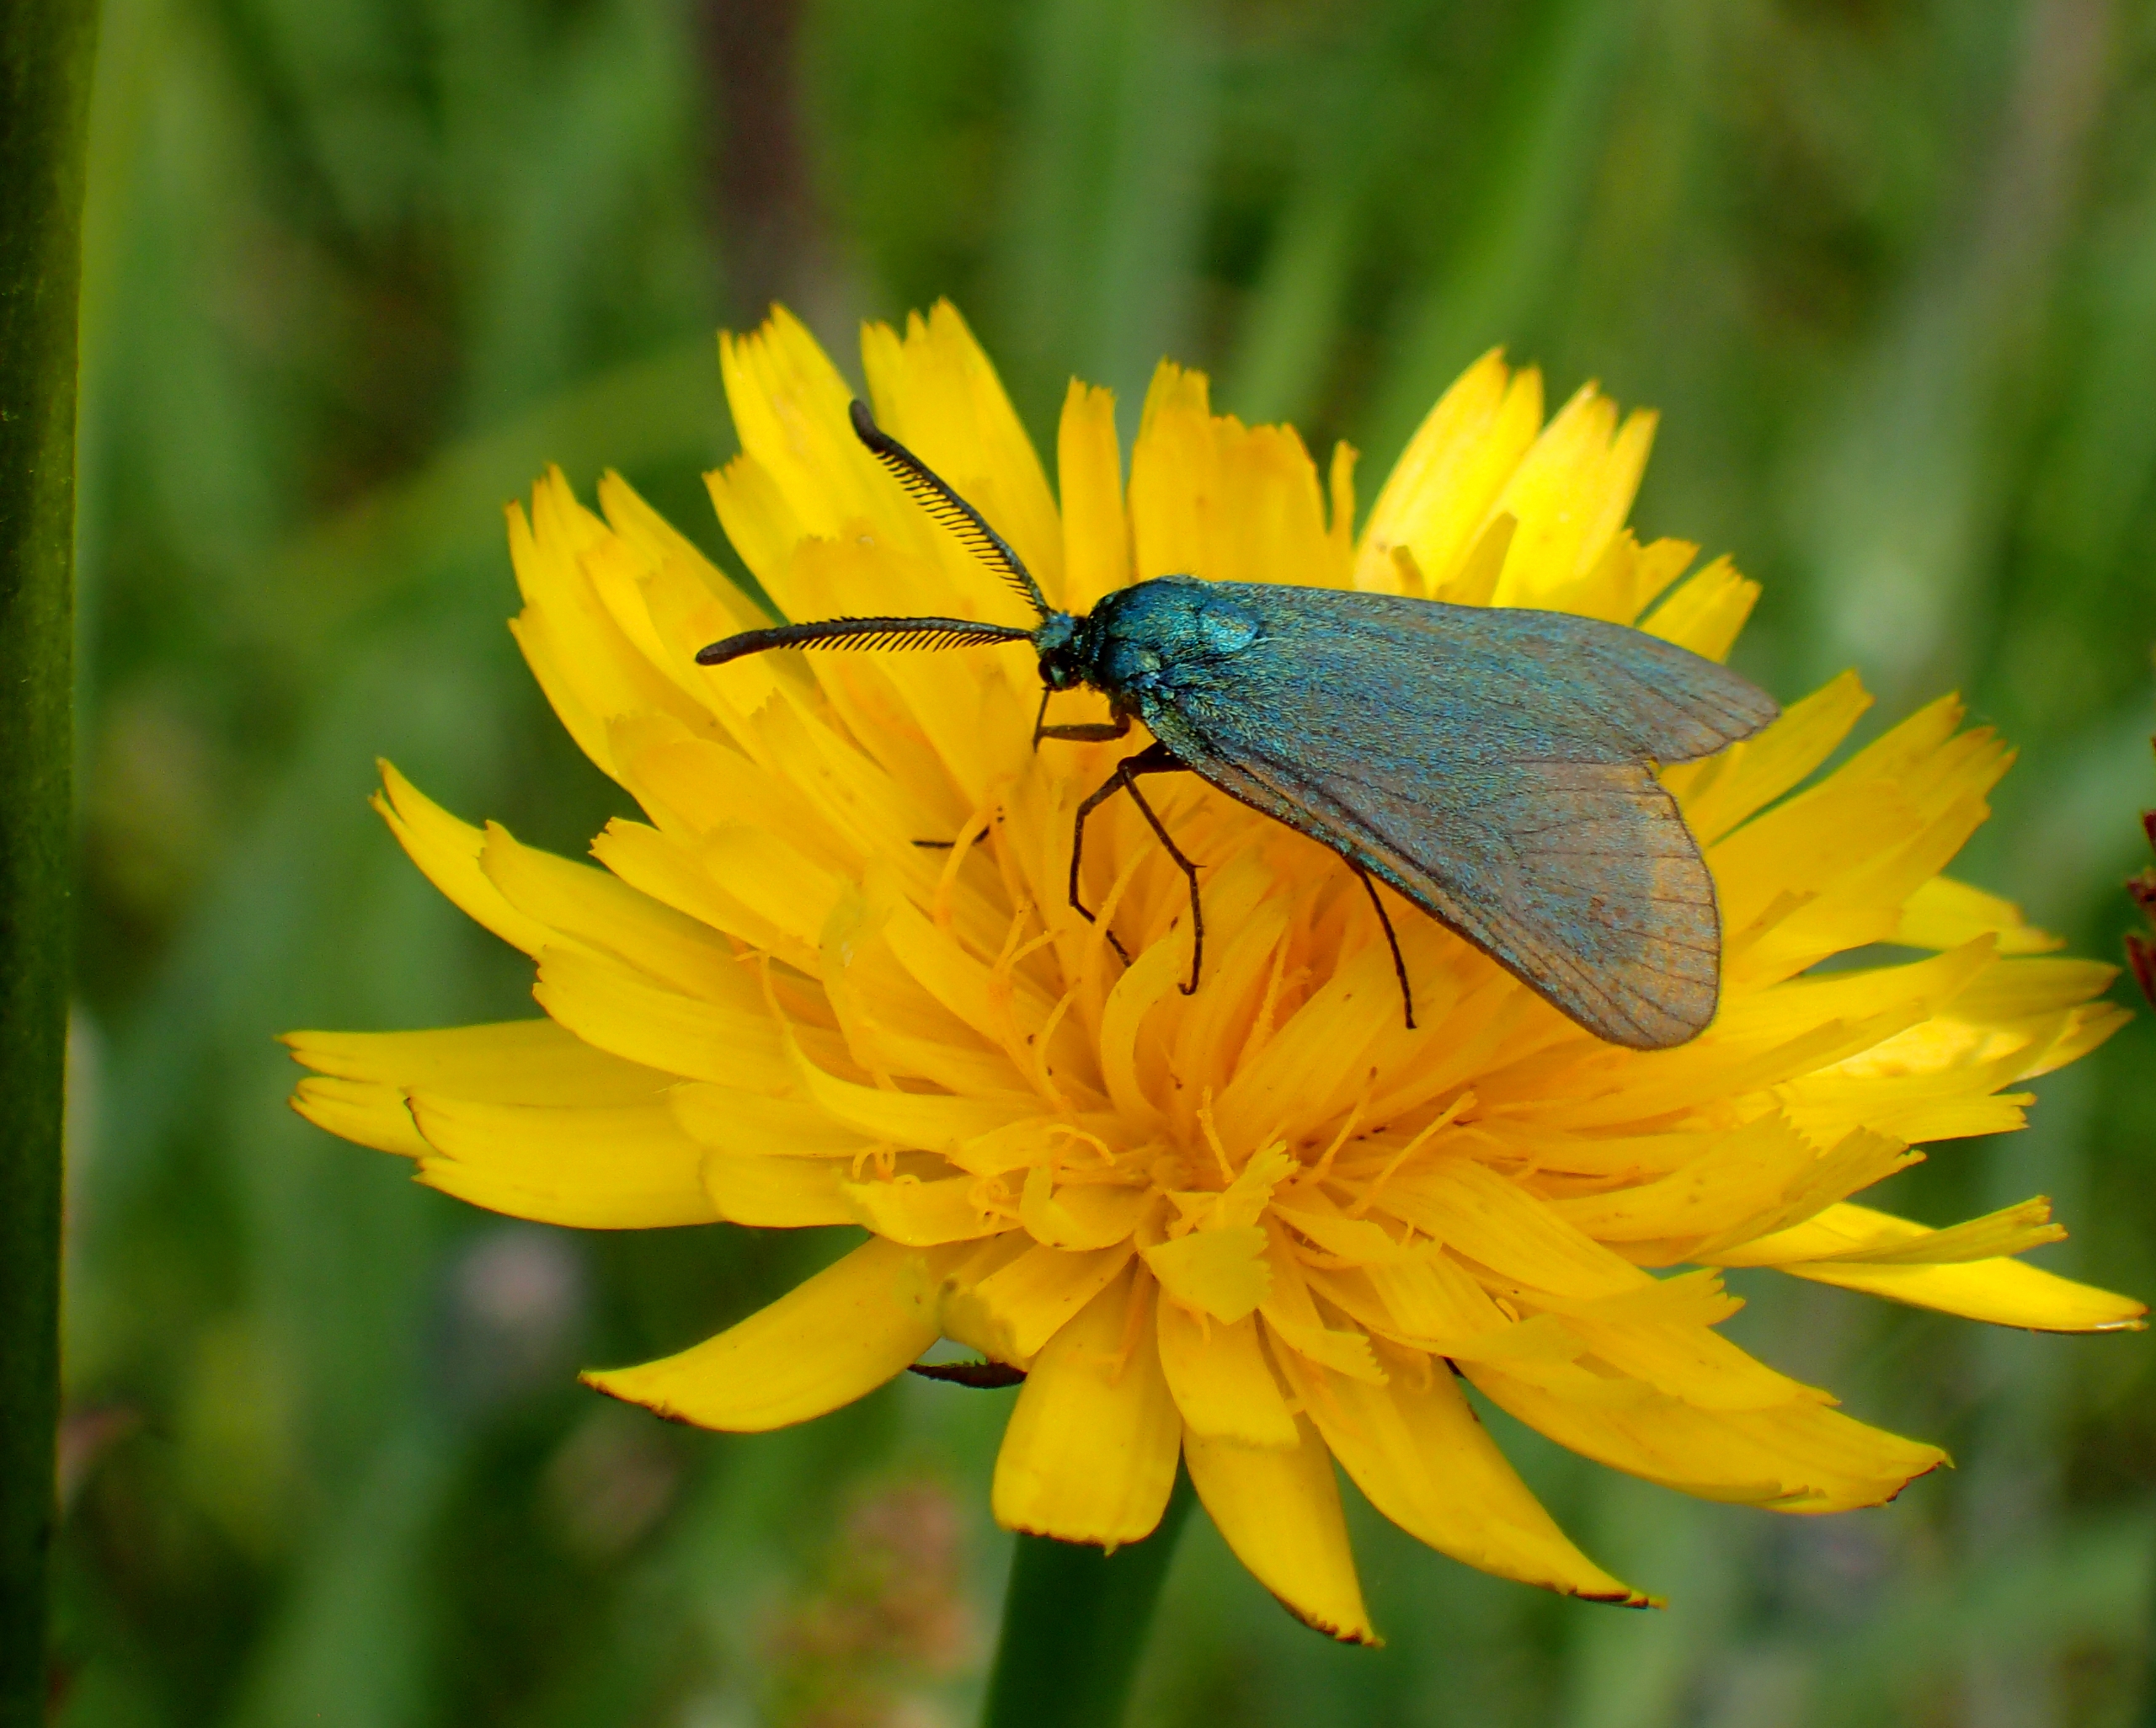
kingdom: Animalia
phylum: Arthropoda
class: Insecta
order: Lepidoptera
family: Zygaenidae
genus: Adscita
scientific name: Adscita statices
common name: Metalvinge
